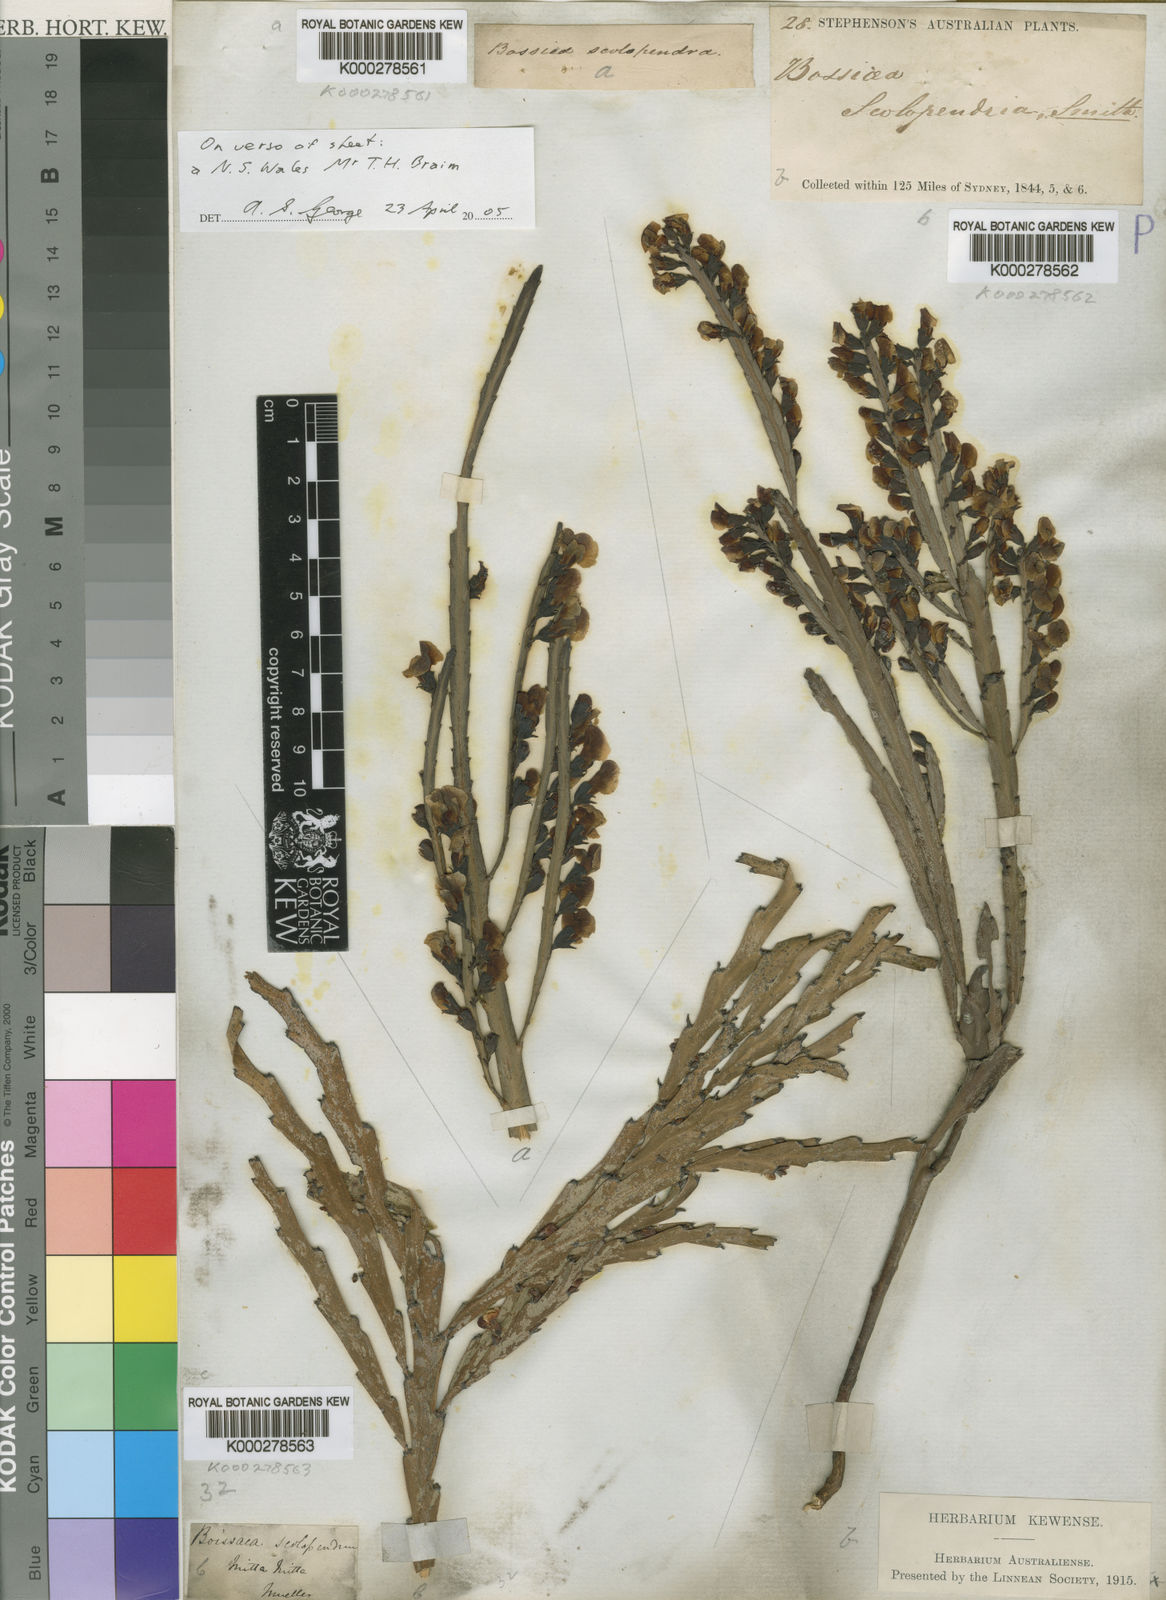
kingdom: Plantae
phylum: Tracheophyta
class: Magnoliopsida
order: Fabales
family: Fabaceae
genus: Bossiaea
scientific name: Bossiaea scolopendria
